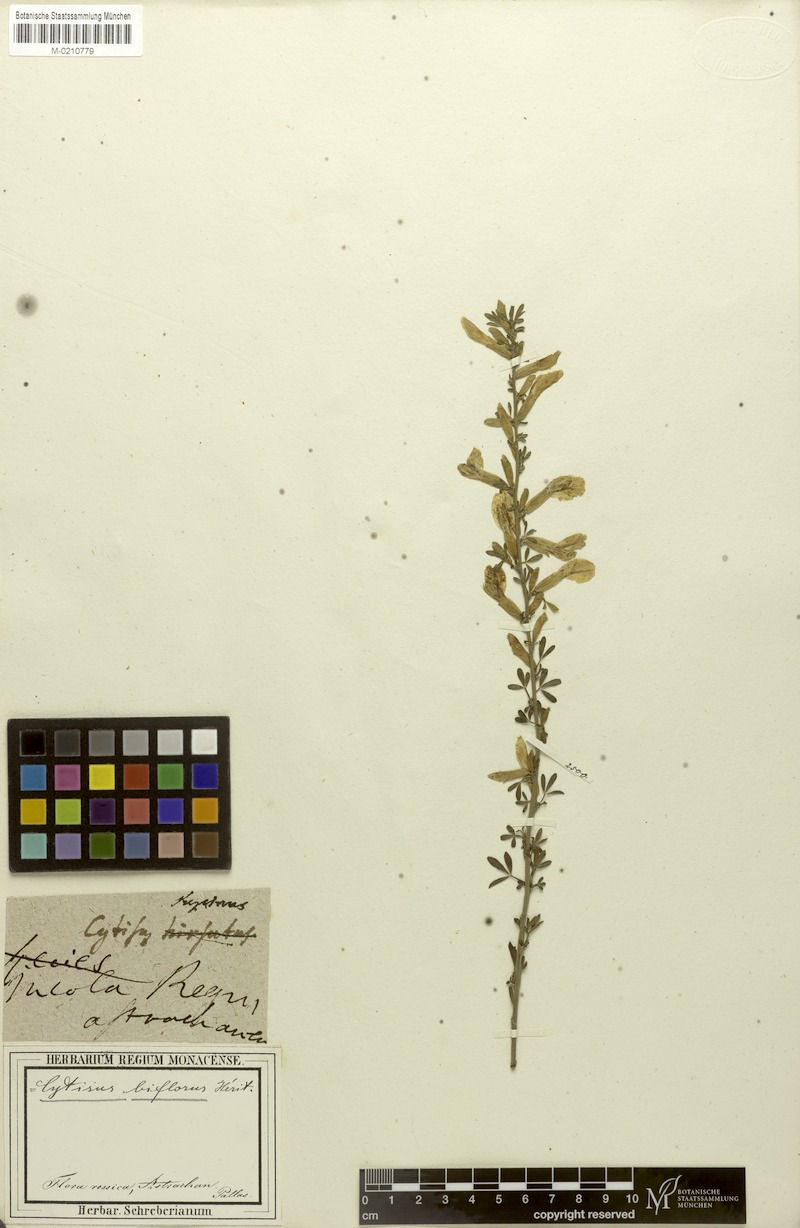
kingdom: Plantae
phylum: Tracheophyta
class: Magnoliopsida
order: Fabales
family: Fabaceae
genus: Chamaecytisus
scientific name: Chamaecytisus ratisbonensis
